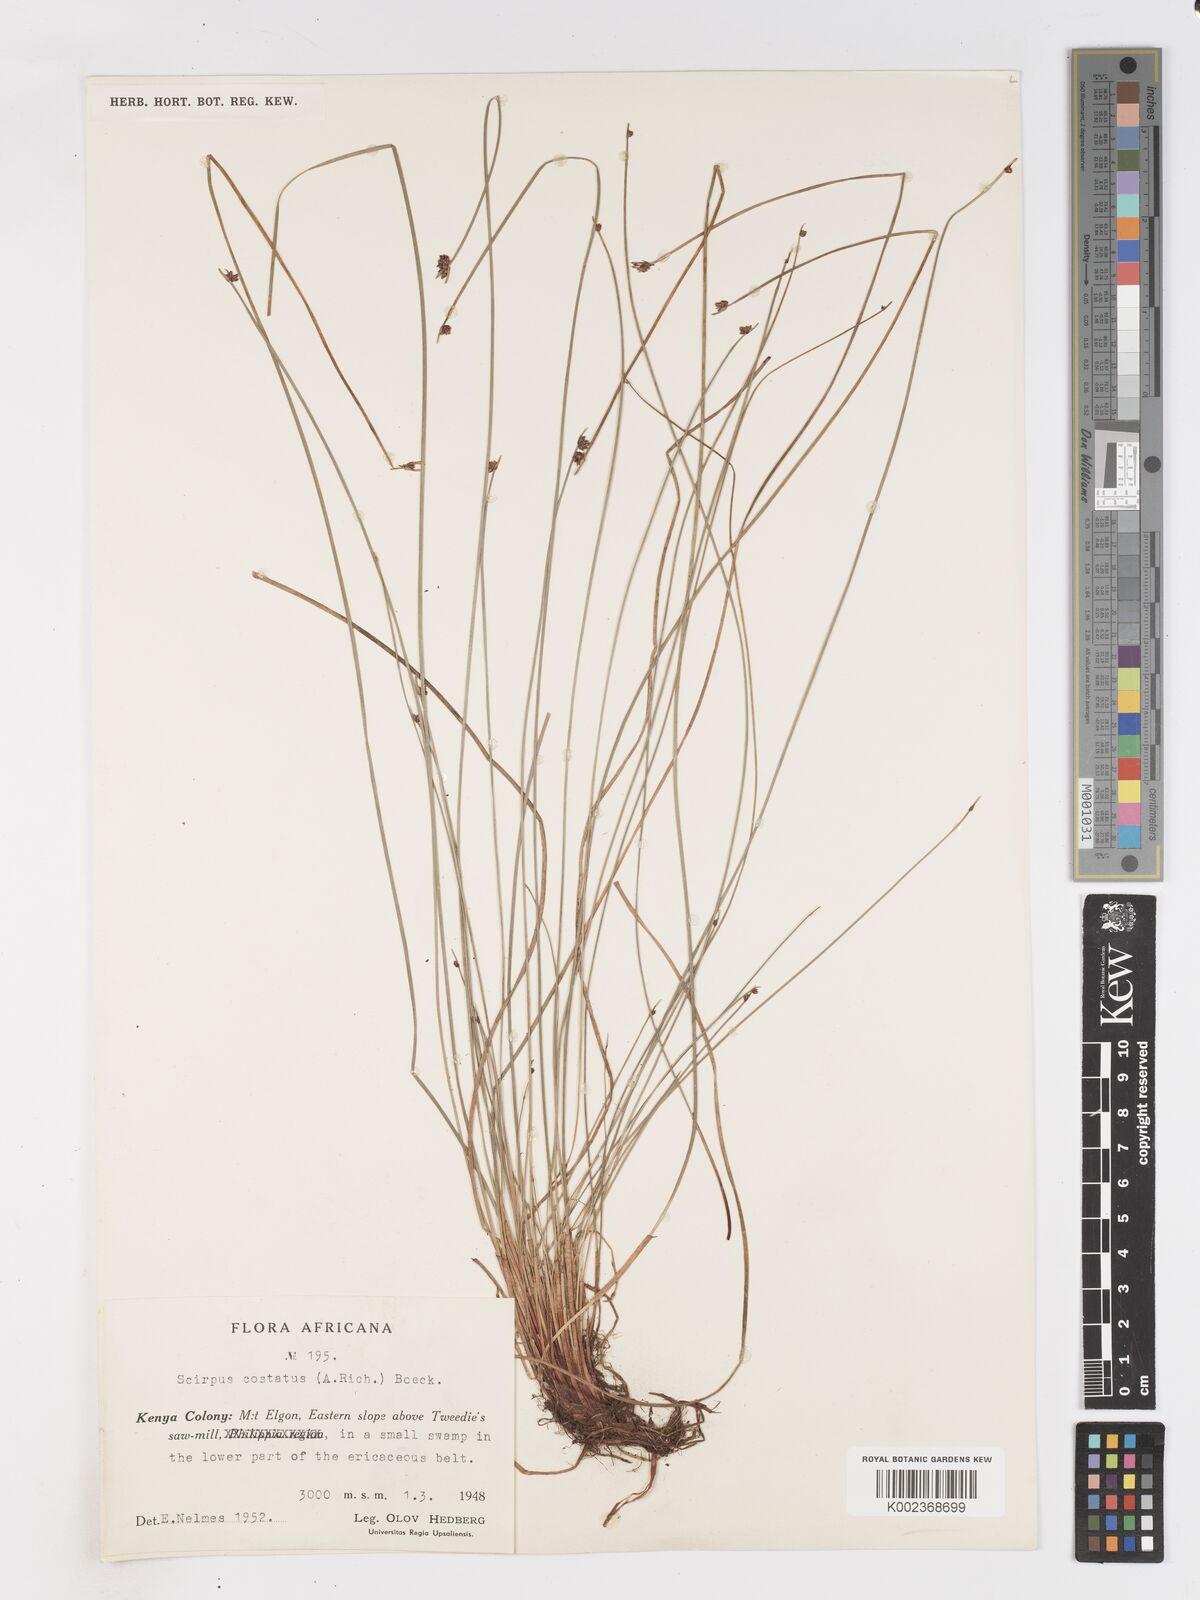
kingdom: Plantae
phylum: Tracheophyta
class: Liliopsida
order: Poales
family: Cyperaceae
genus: Isolepis
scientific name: Isolepis costata
